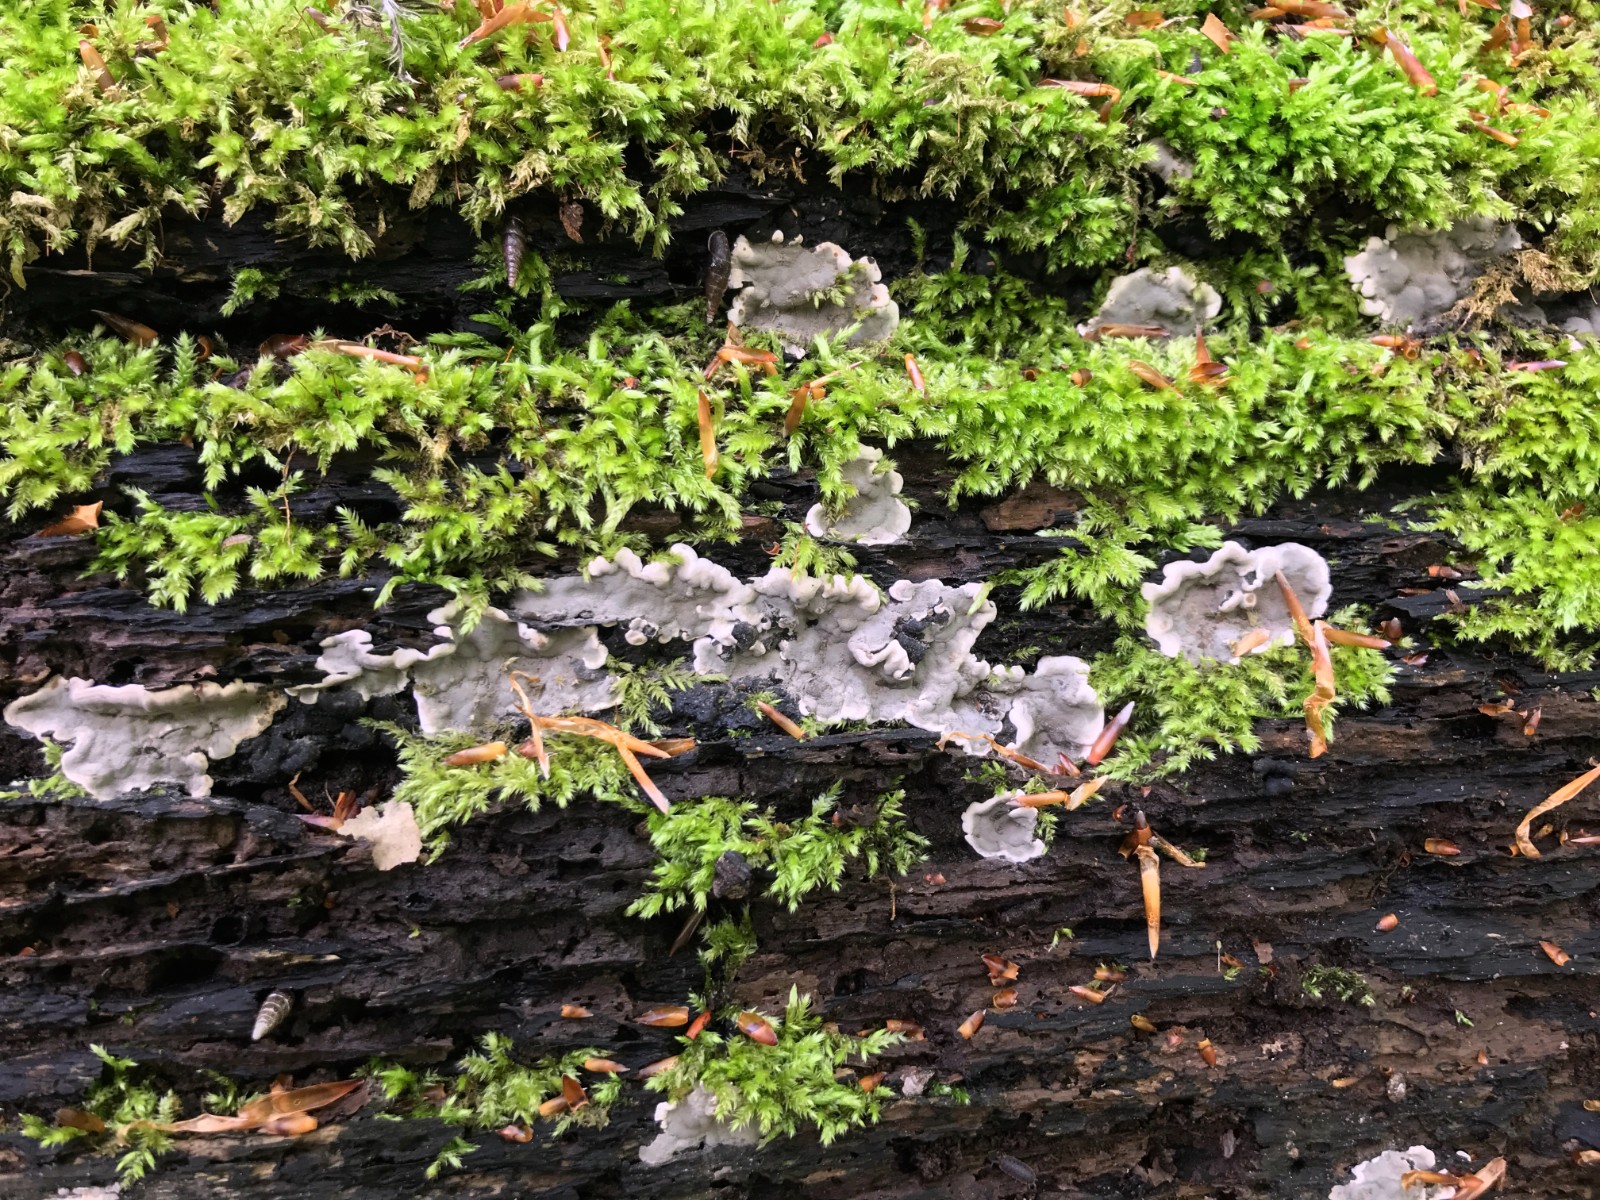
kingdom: Fungi
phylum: Ascomycota
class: Sordariomycetes
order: Xylariales
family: Xylariaceae
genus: Kretzschmaria
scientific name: Kretzschmaria deusta
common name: stor kulsvamp
